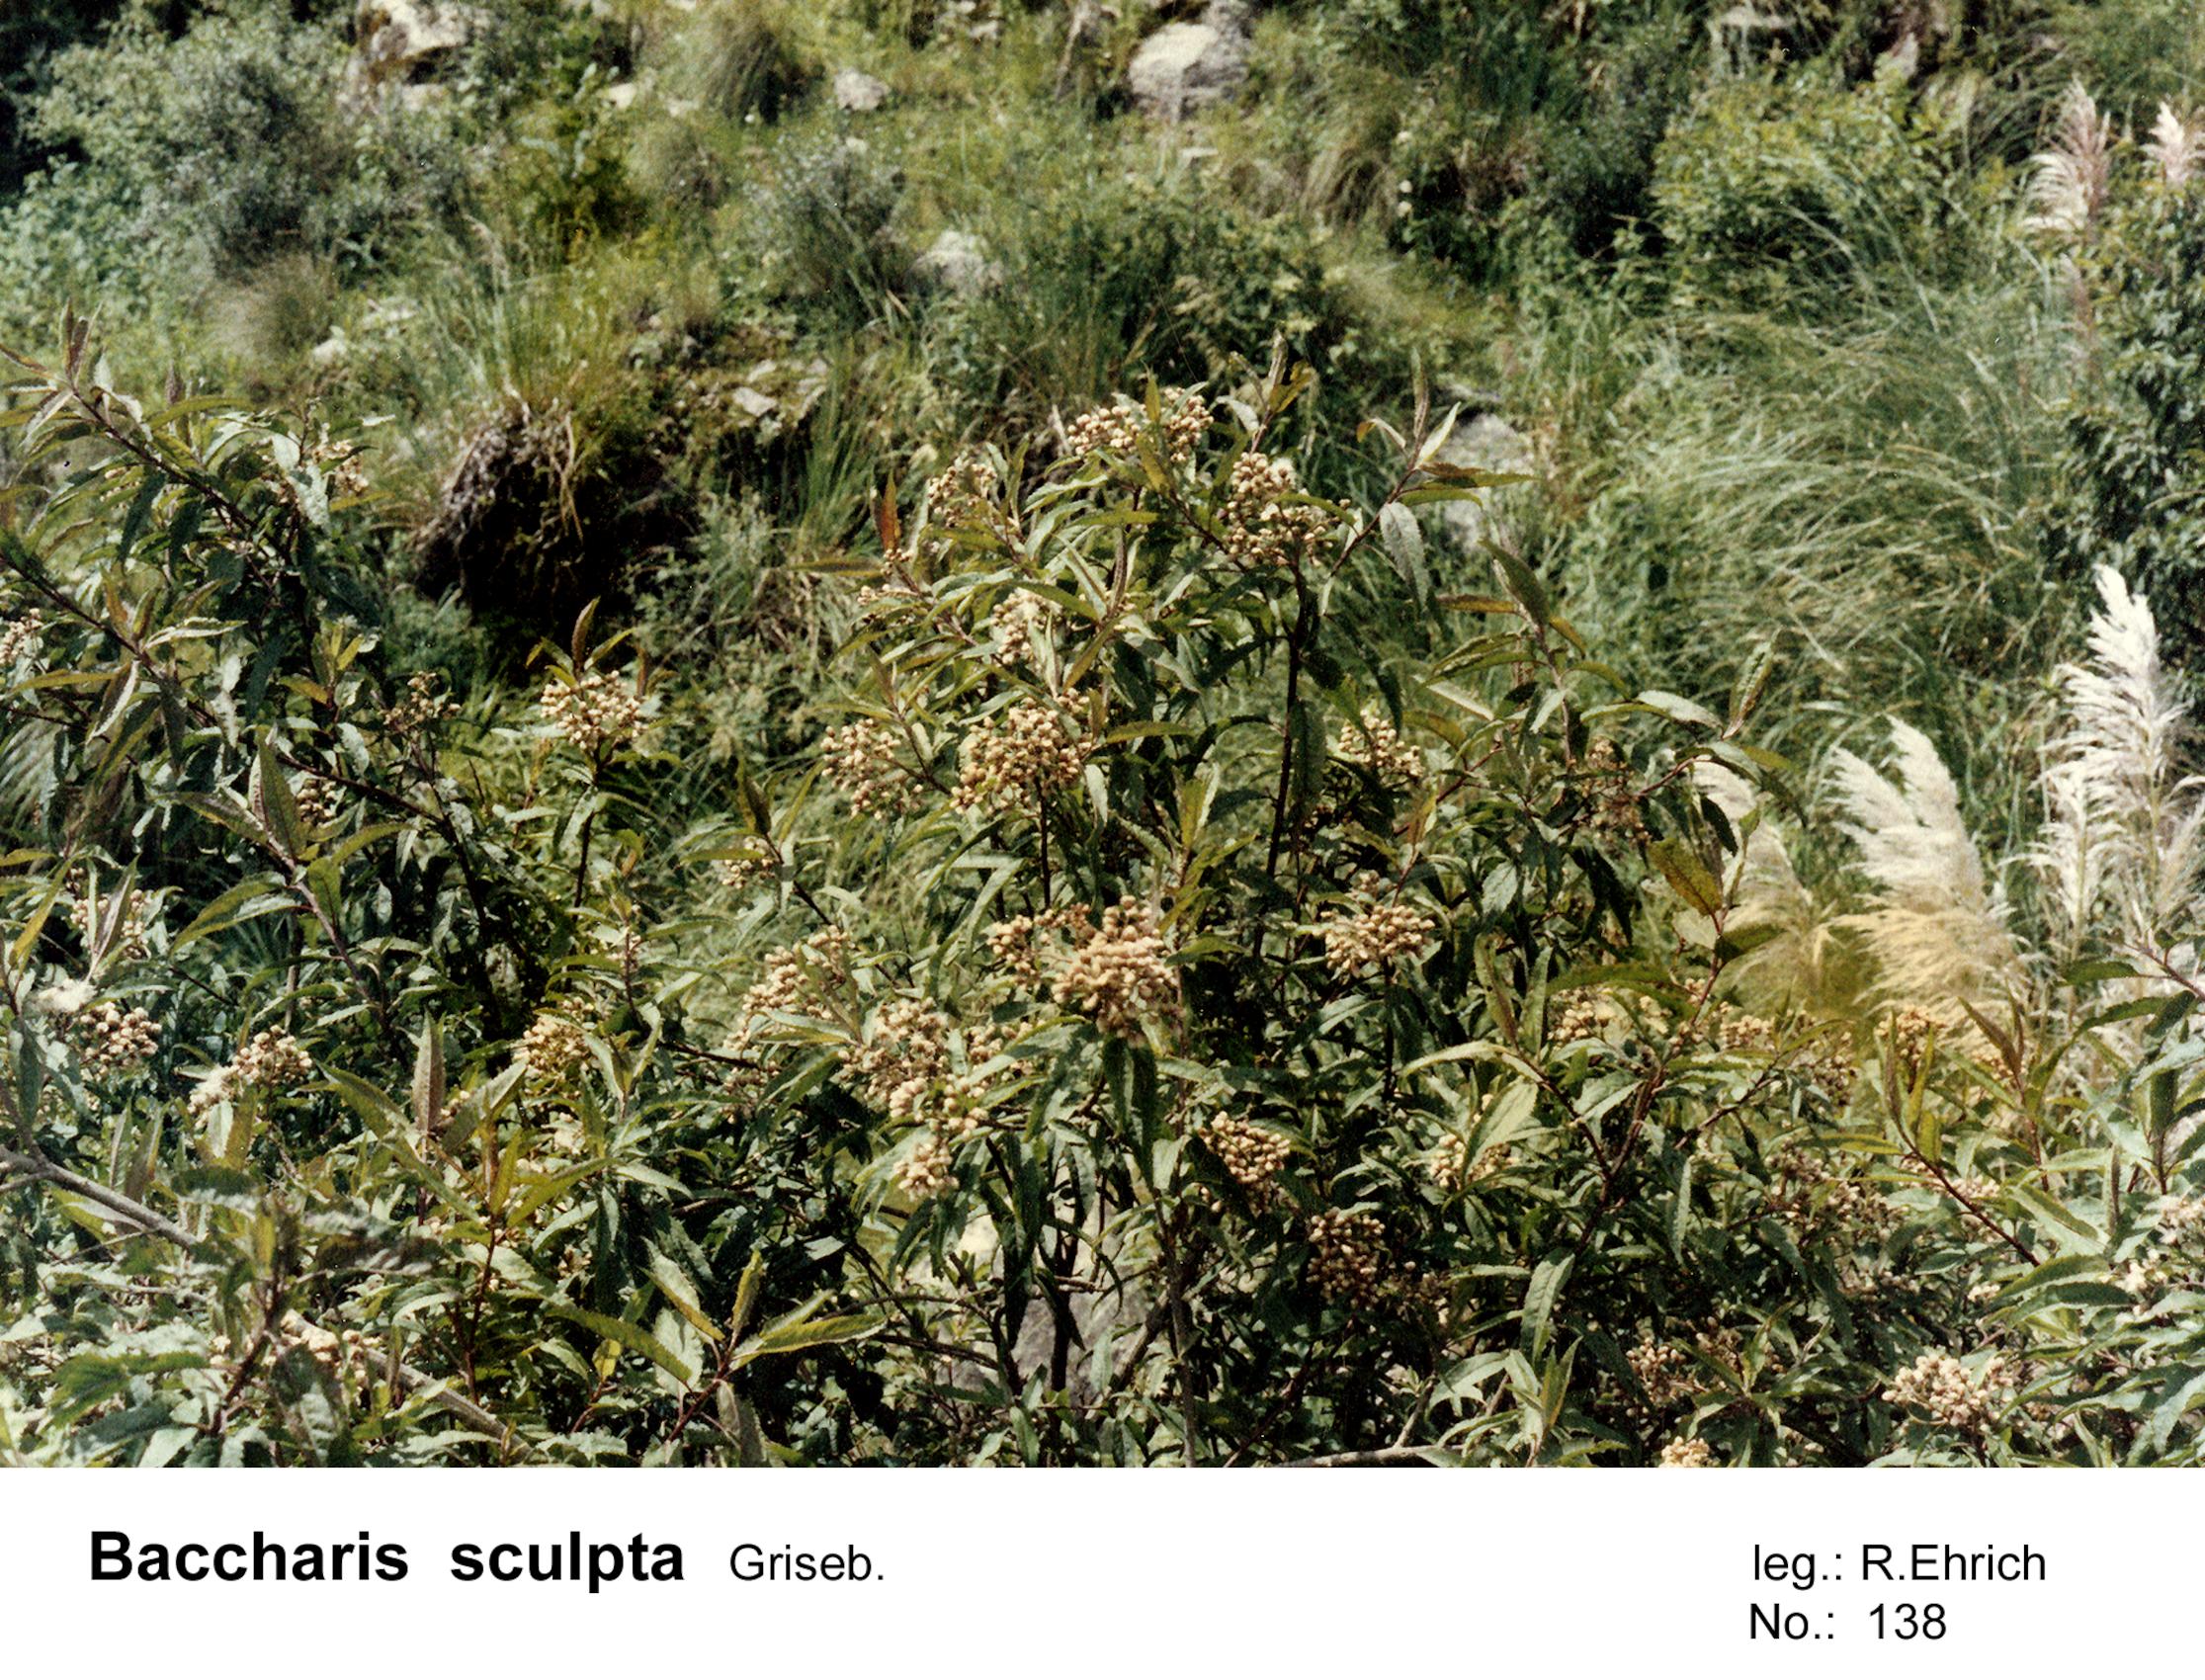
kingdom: Plantae
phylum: Tracheophyta
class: Magnoliopsida
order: Asterales
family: Asteraceae
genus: Baccharis
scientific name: Baccharis pentlandii
